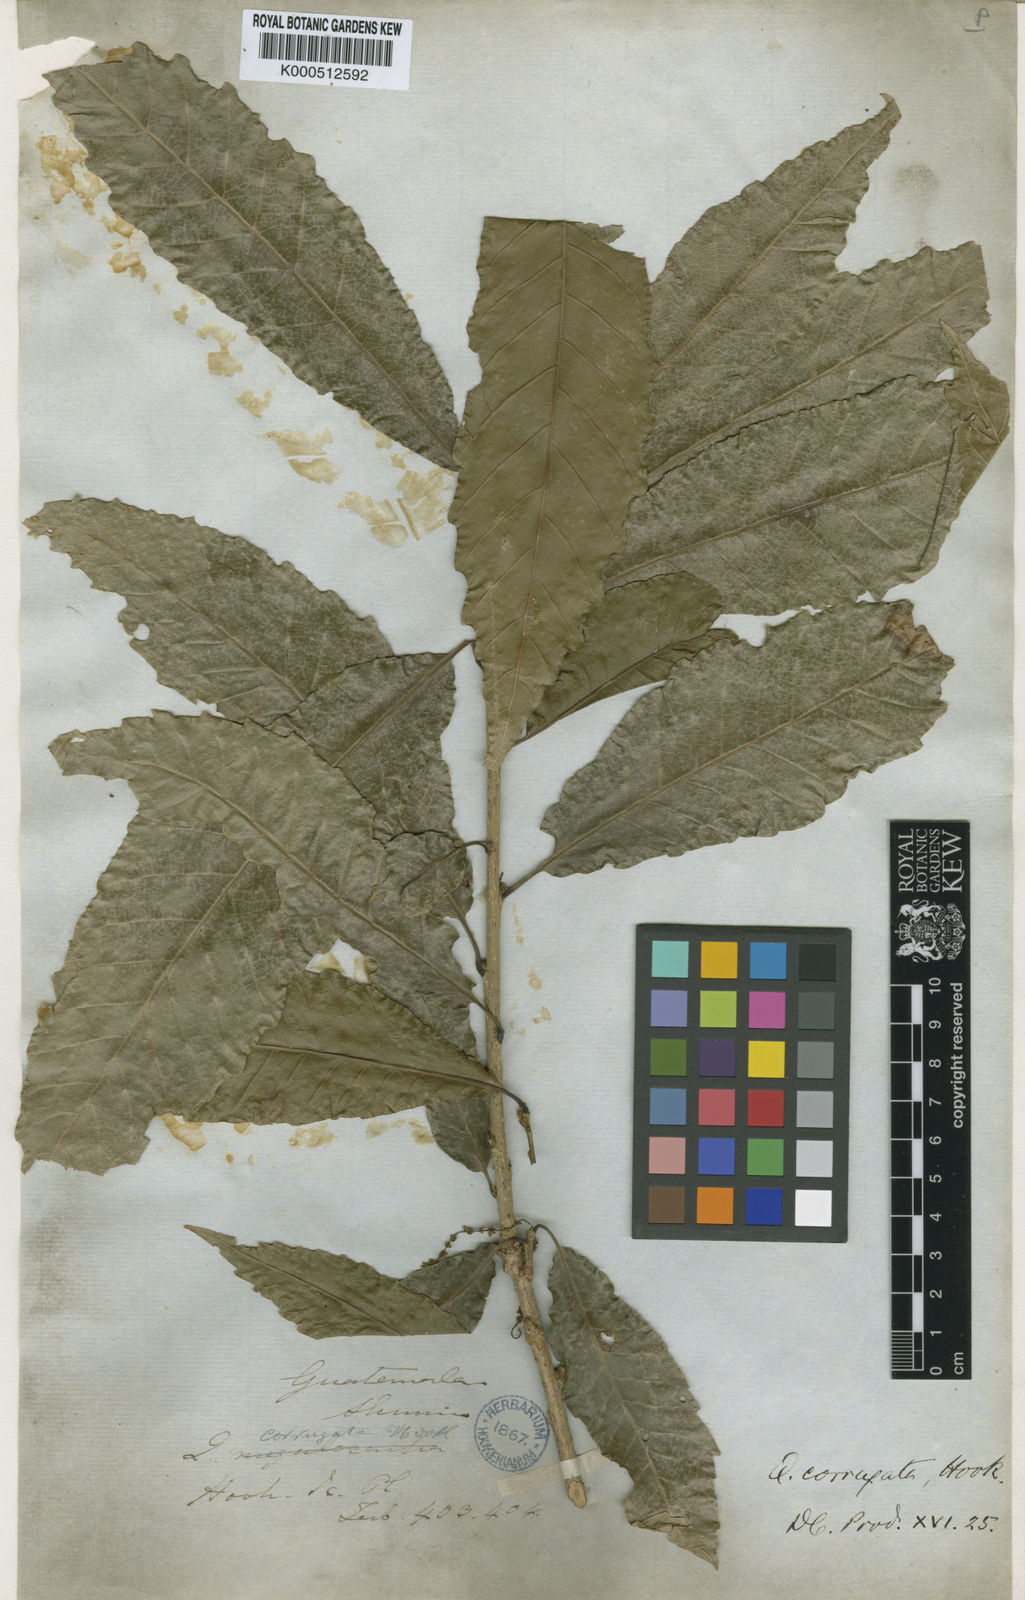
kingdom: Plantae
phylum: Tracheophyta
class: Magnoliopsida
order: Fagales
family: Fagaceae
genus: Quercus
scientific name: Quercus corrugata
